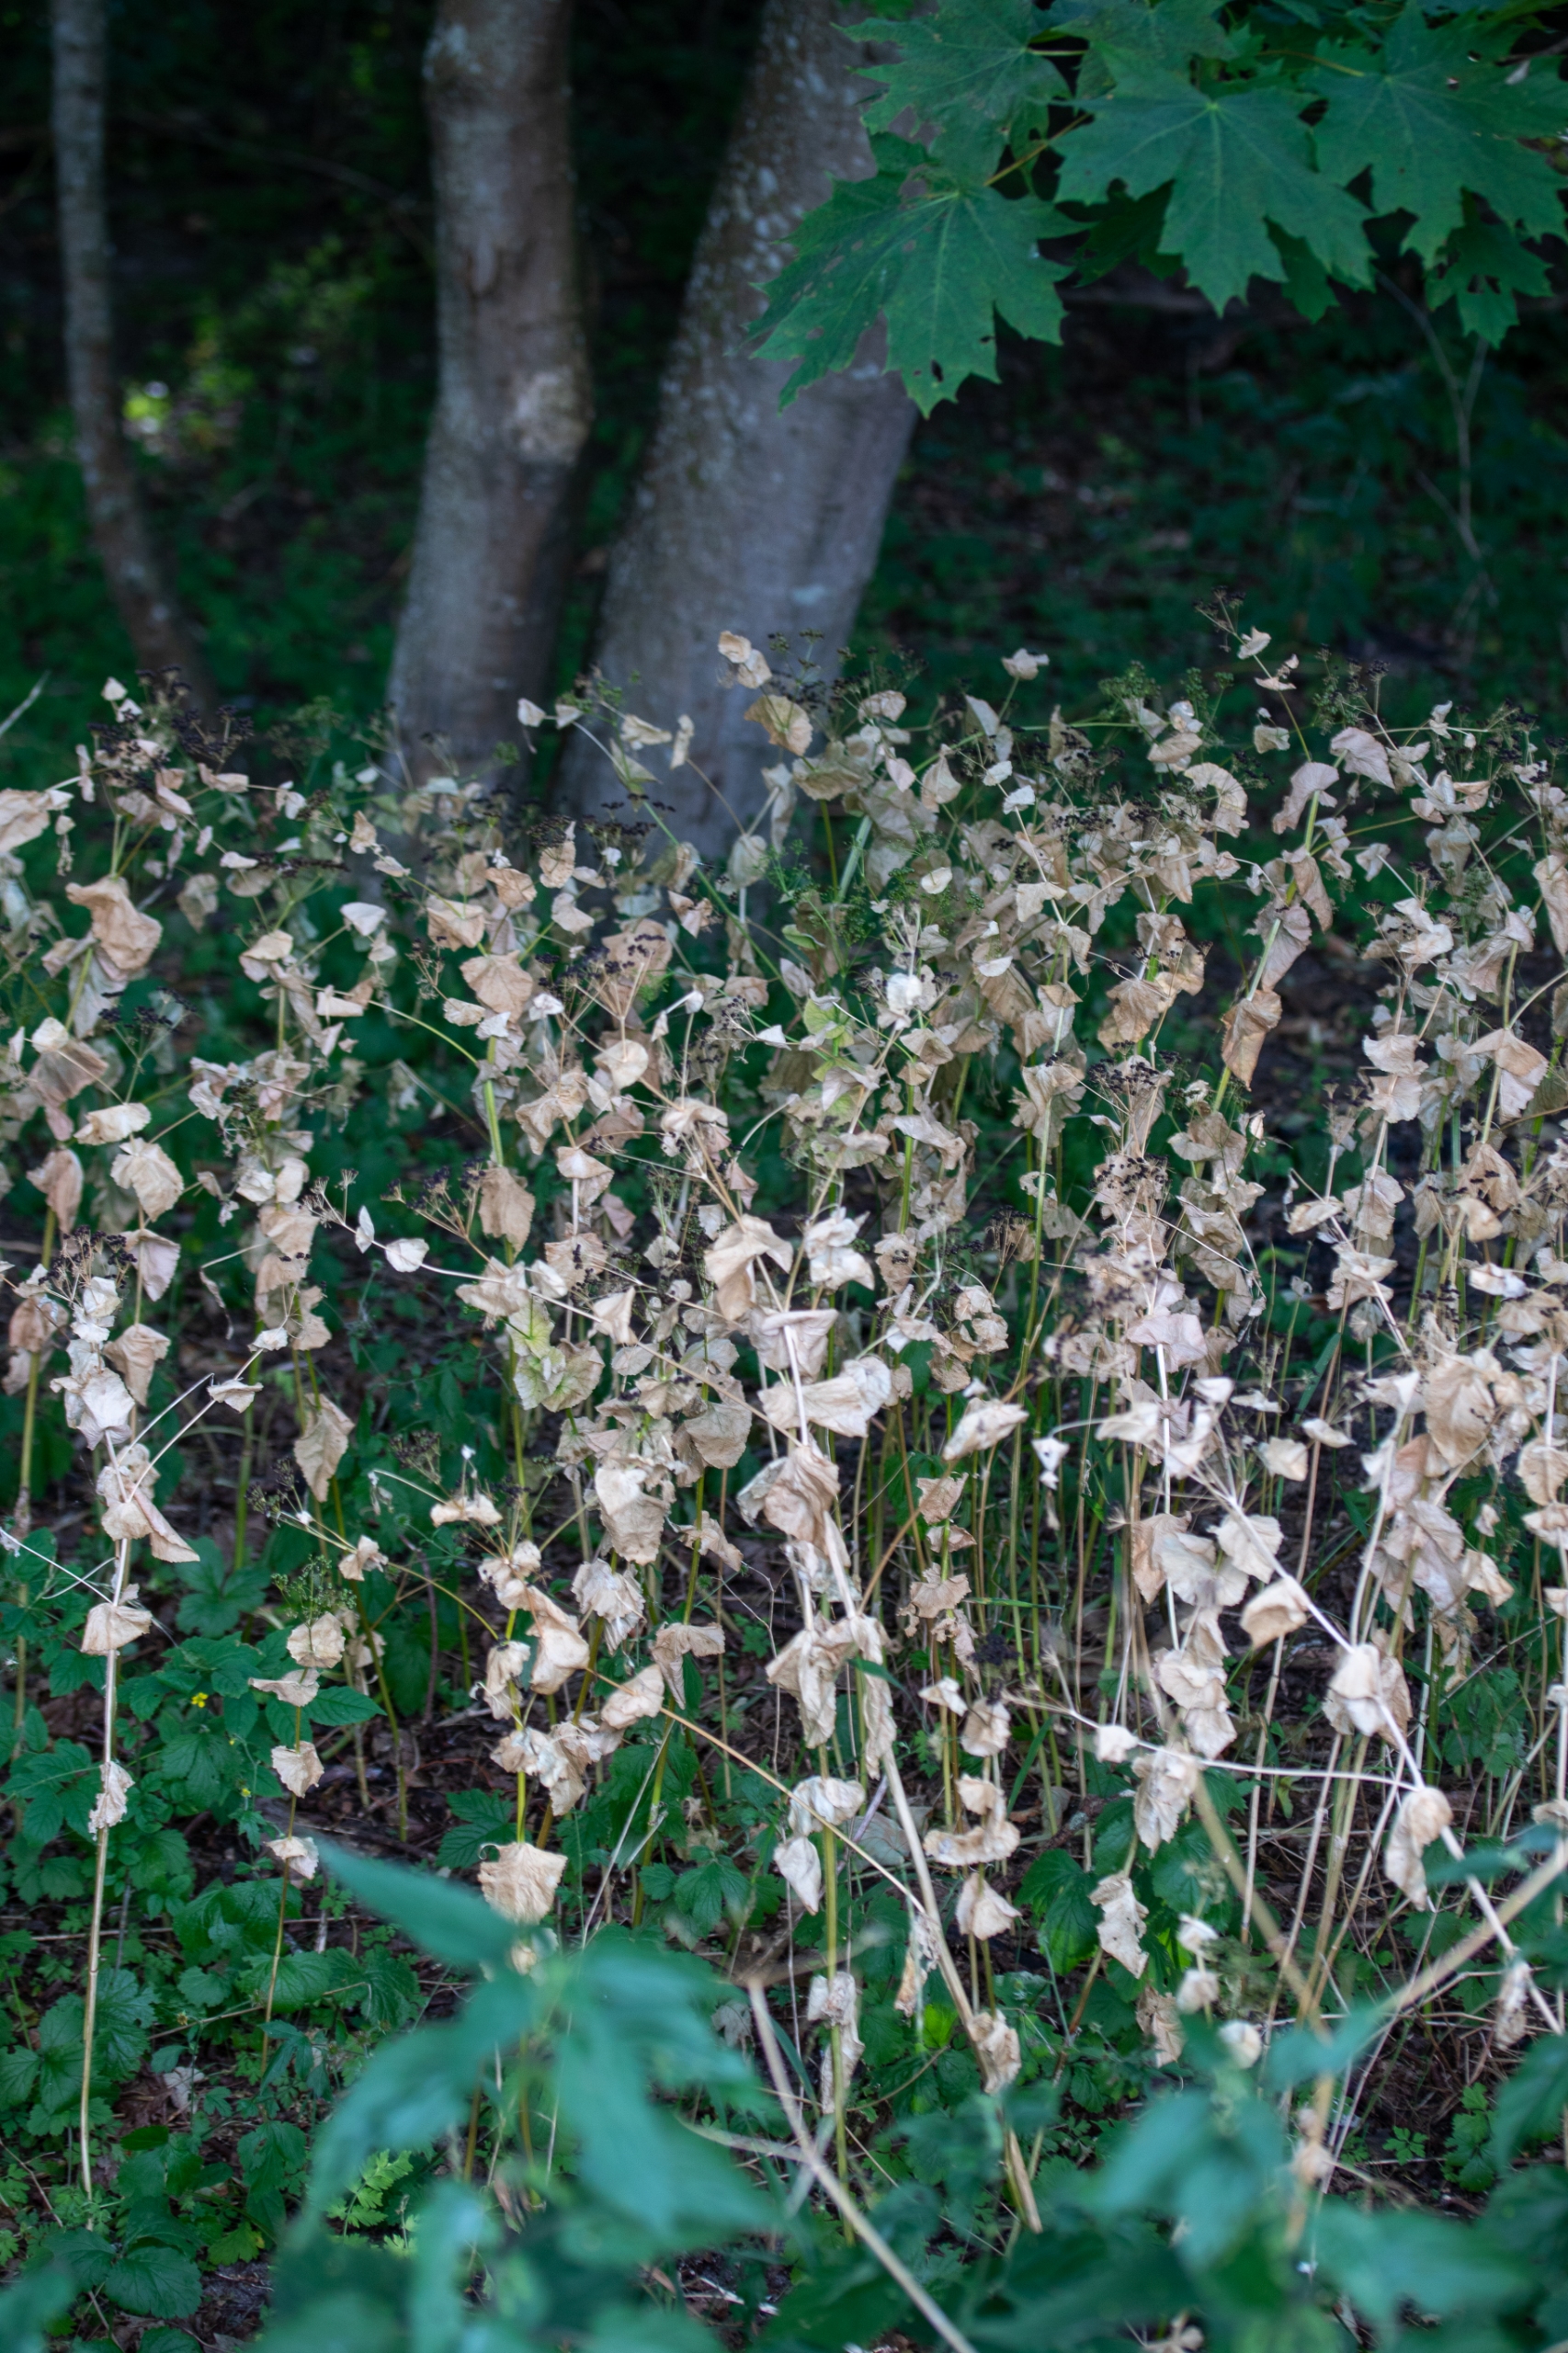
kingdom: Plantae
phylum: Tracheophyta
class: Magnoliopsida
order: Apiales
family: Apiaceae
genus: Smyrnium
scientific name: Smyrnium perfoliatum
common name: Lundgylden
